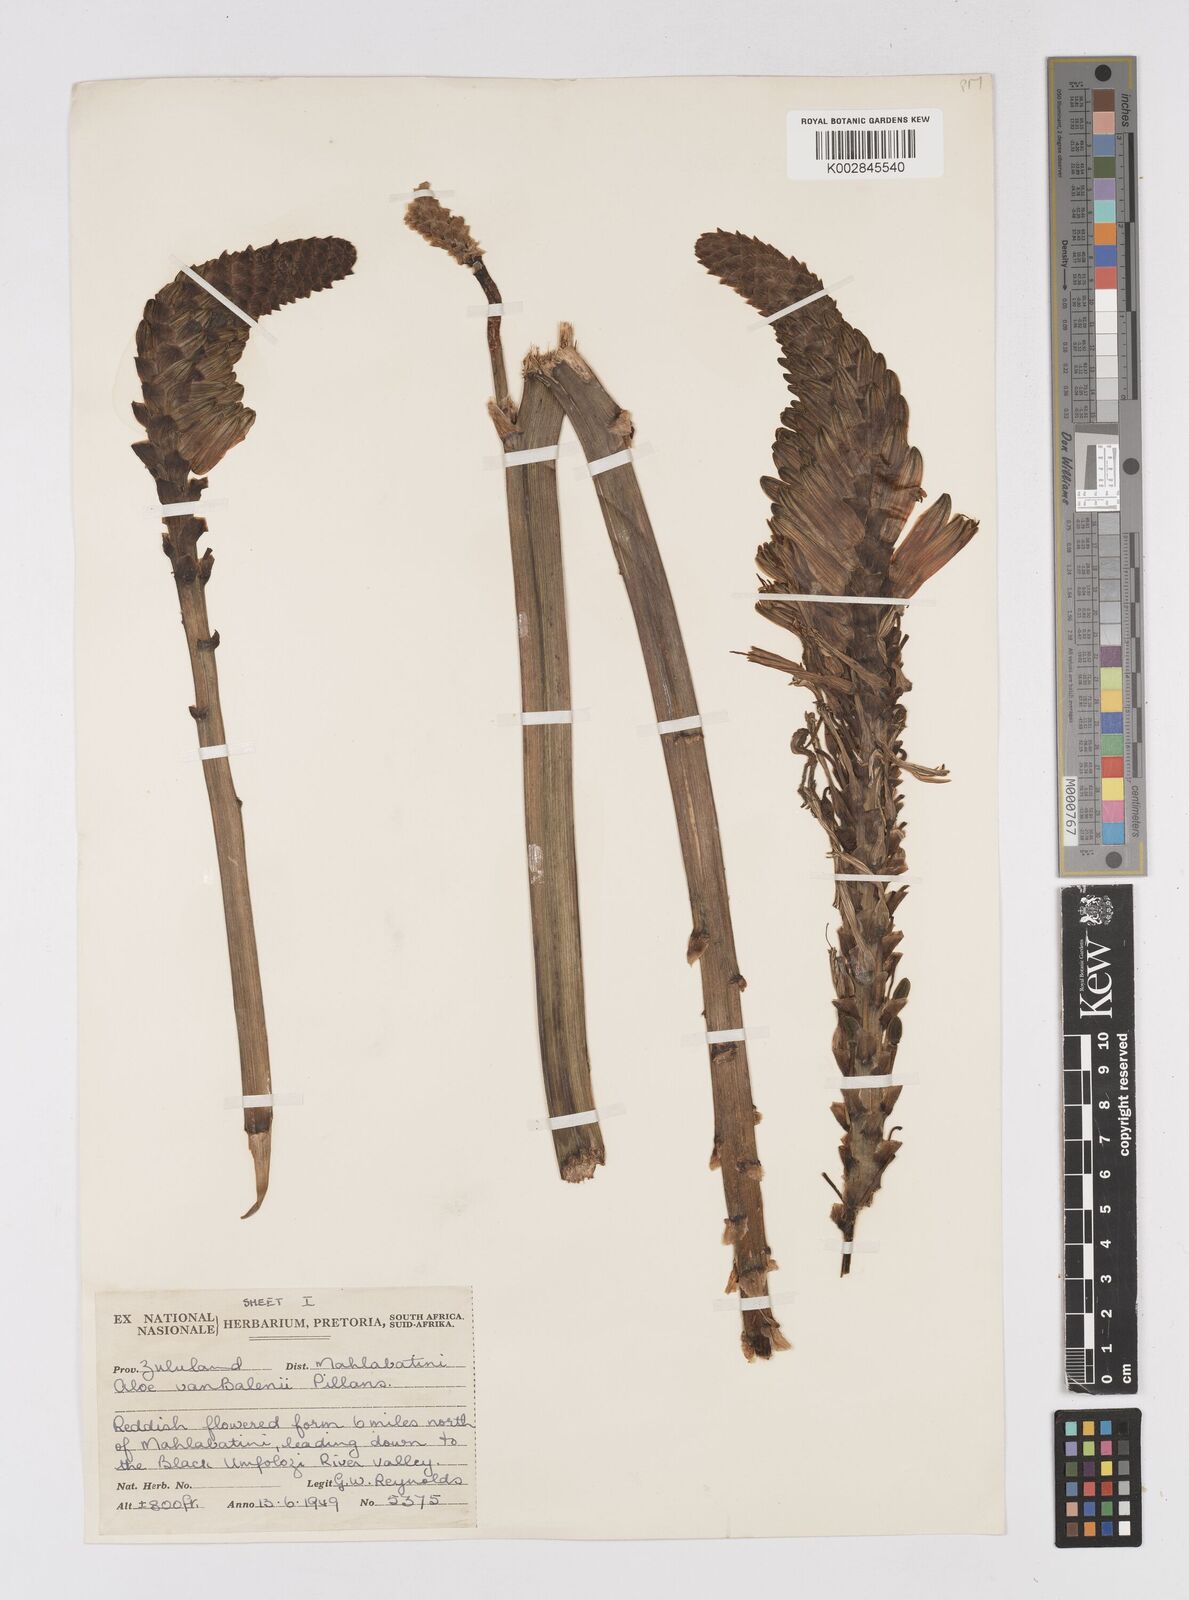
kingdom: Plantae
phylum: Tracheophyta
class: Liliopsida
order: Asparagales
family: Asphodelaceae
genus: Aloe
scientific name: Aloe vanbalenii
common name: Van balen's aloe
